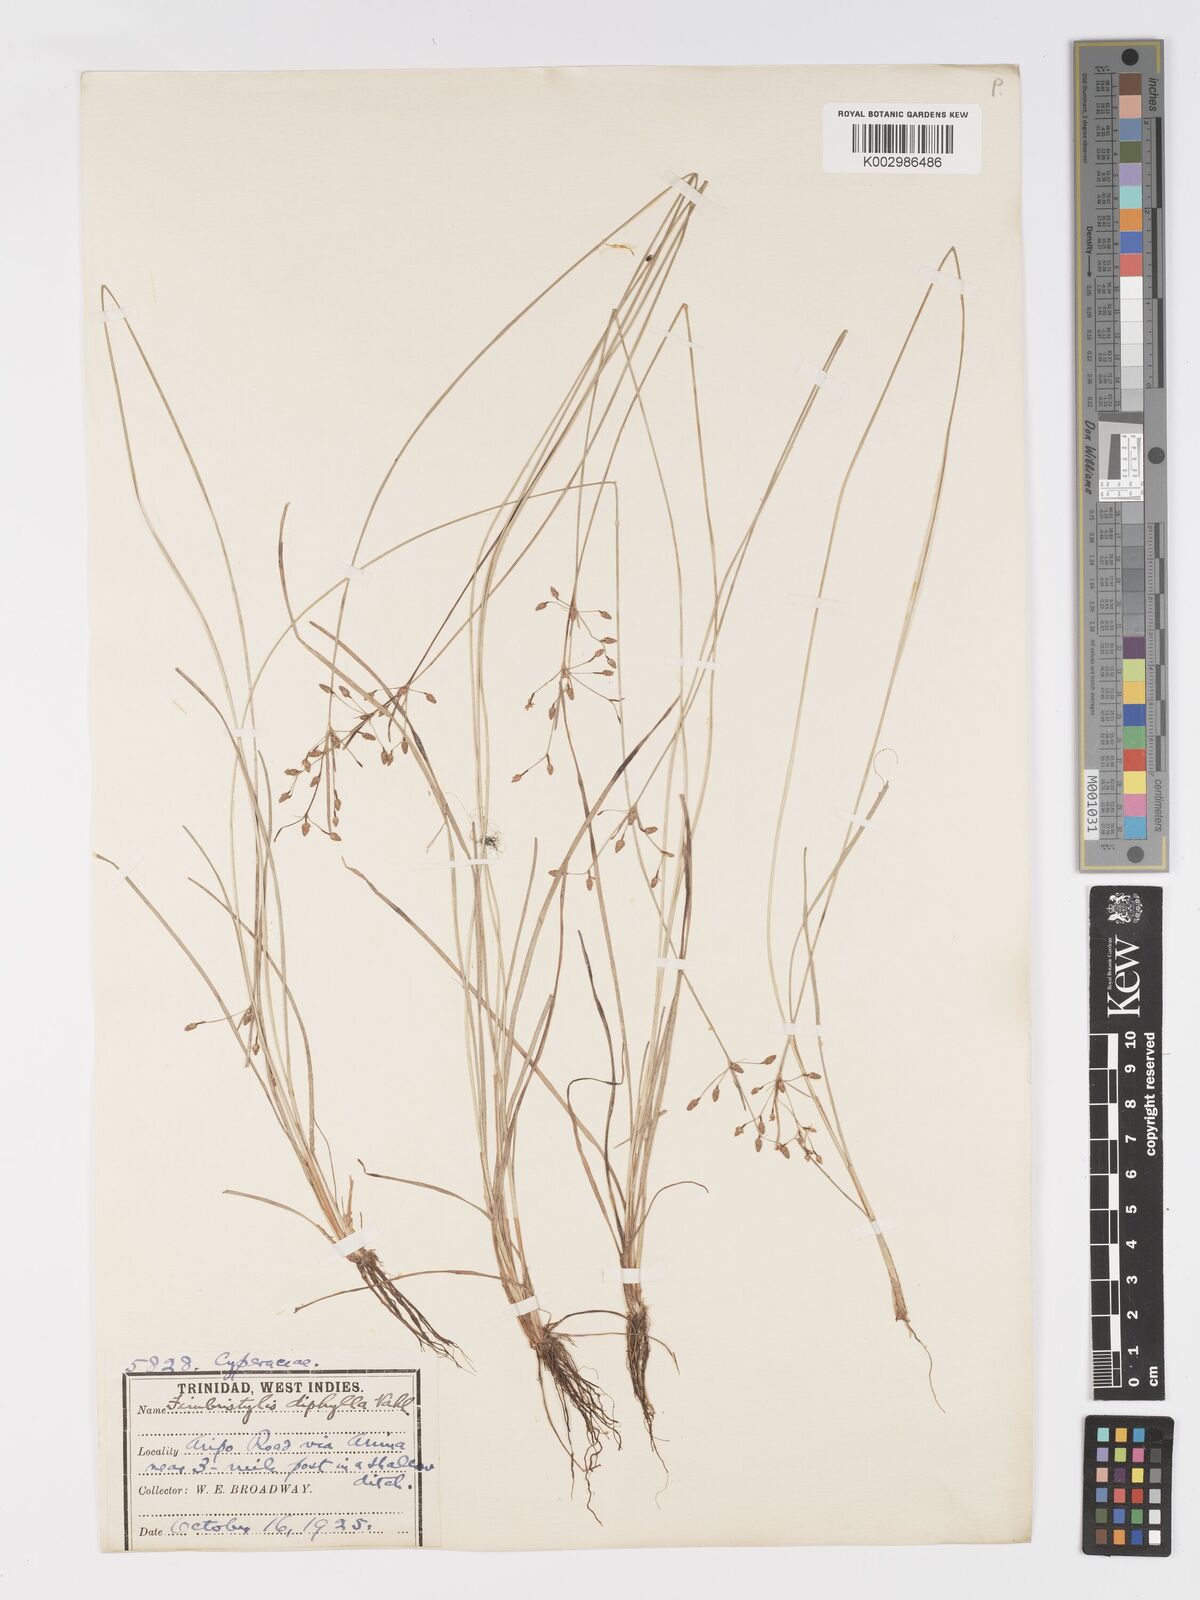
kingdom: Plantae
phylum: Tracheophyta
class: Liliopsida
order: Poales
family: Cyperaceae
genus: Fimbristylis
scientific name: Fimbristylis dichotoma
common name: Forked fimbry
